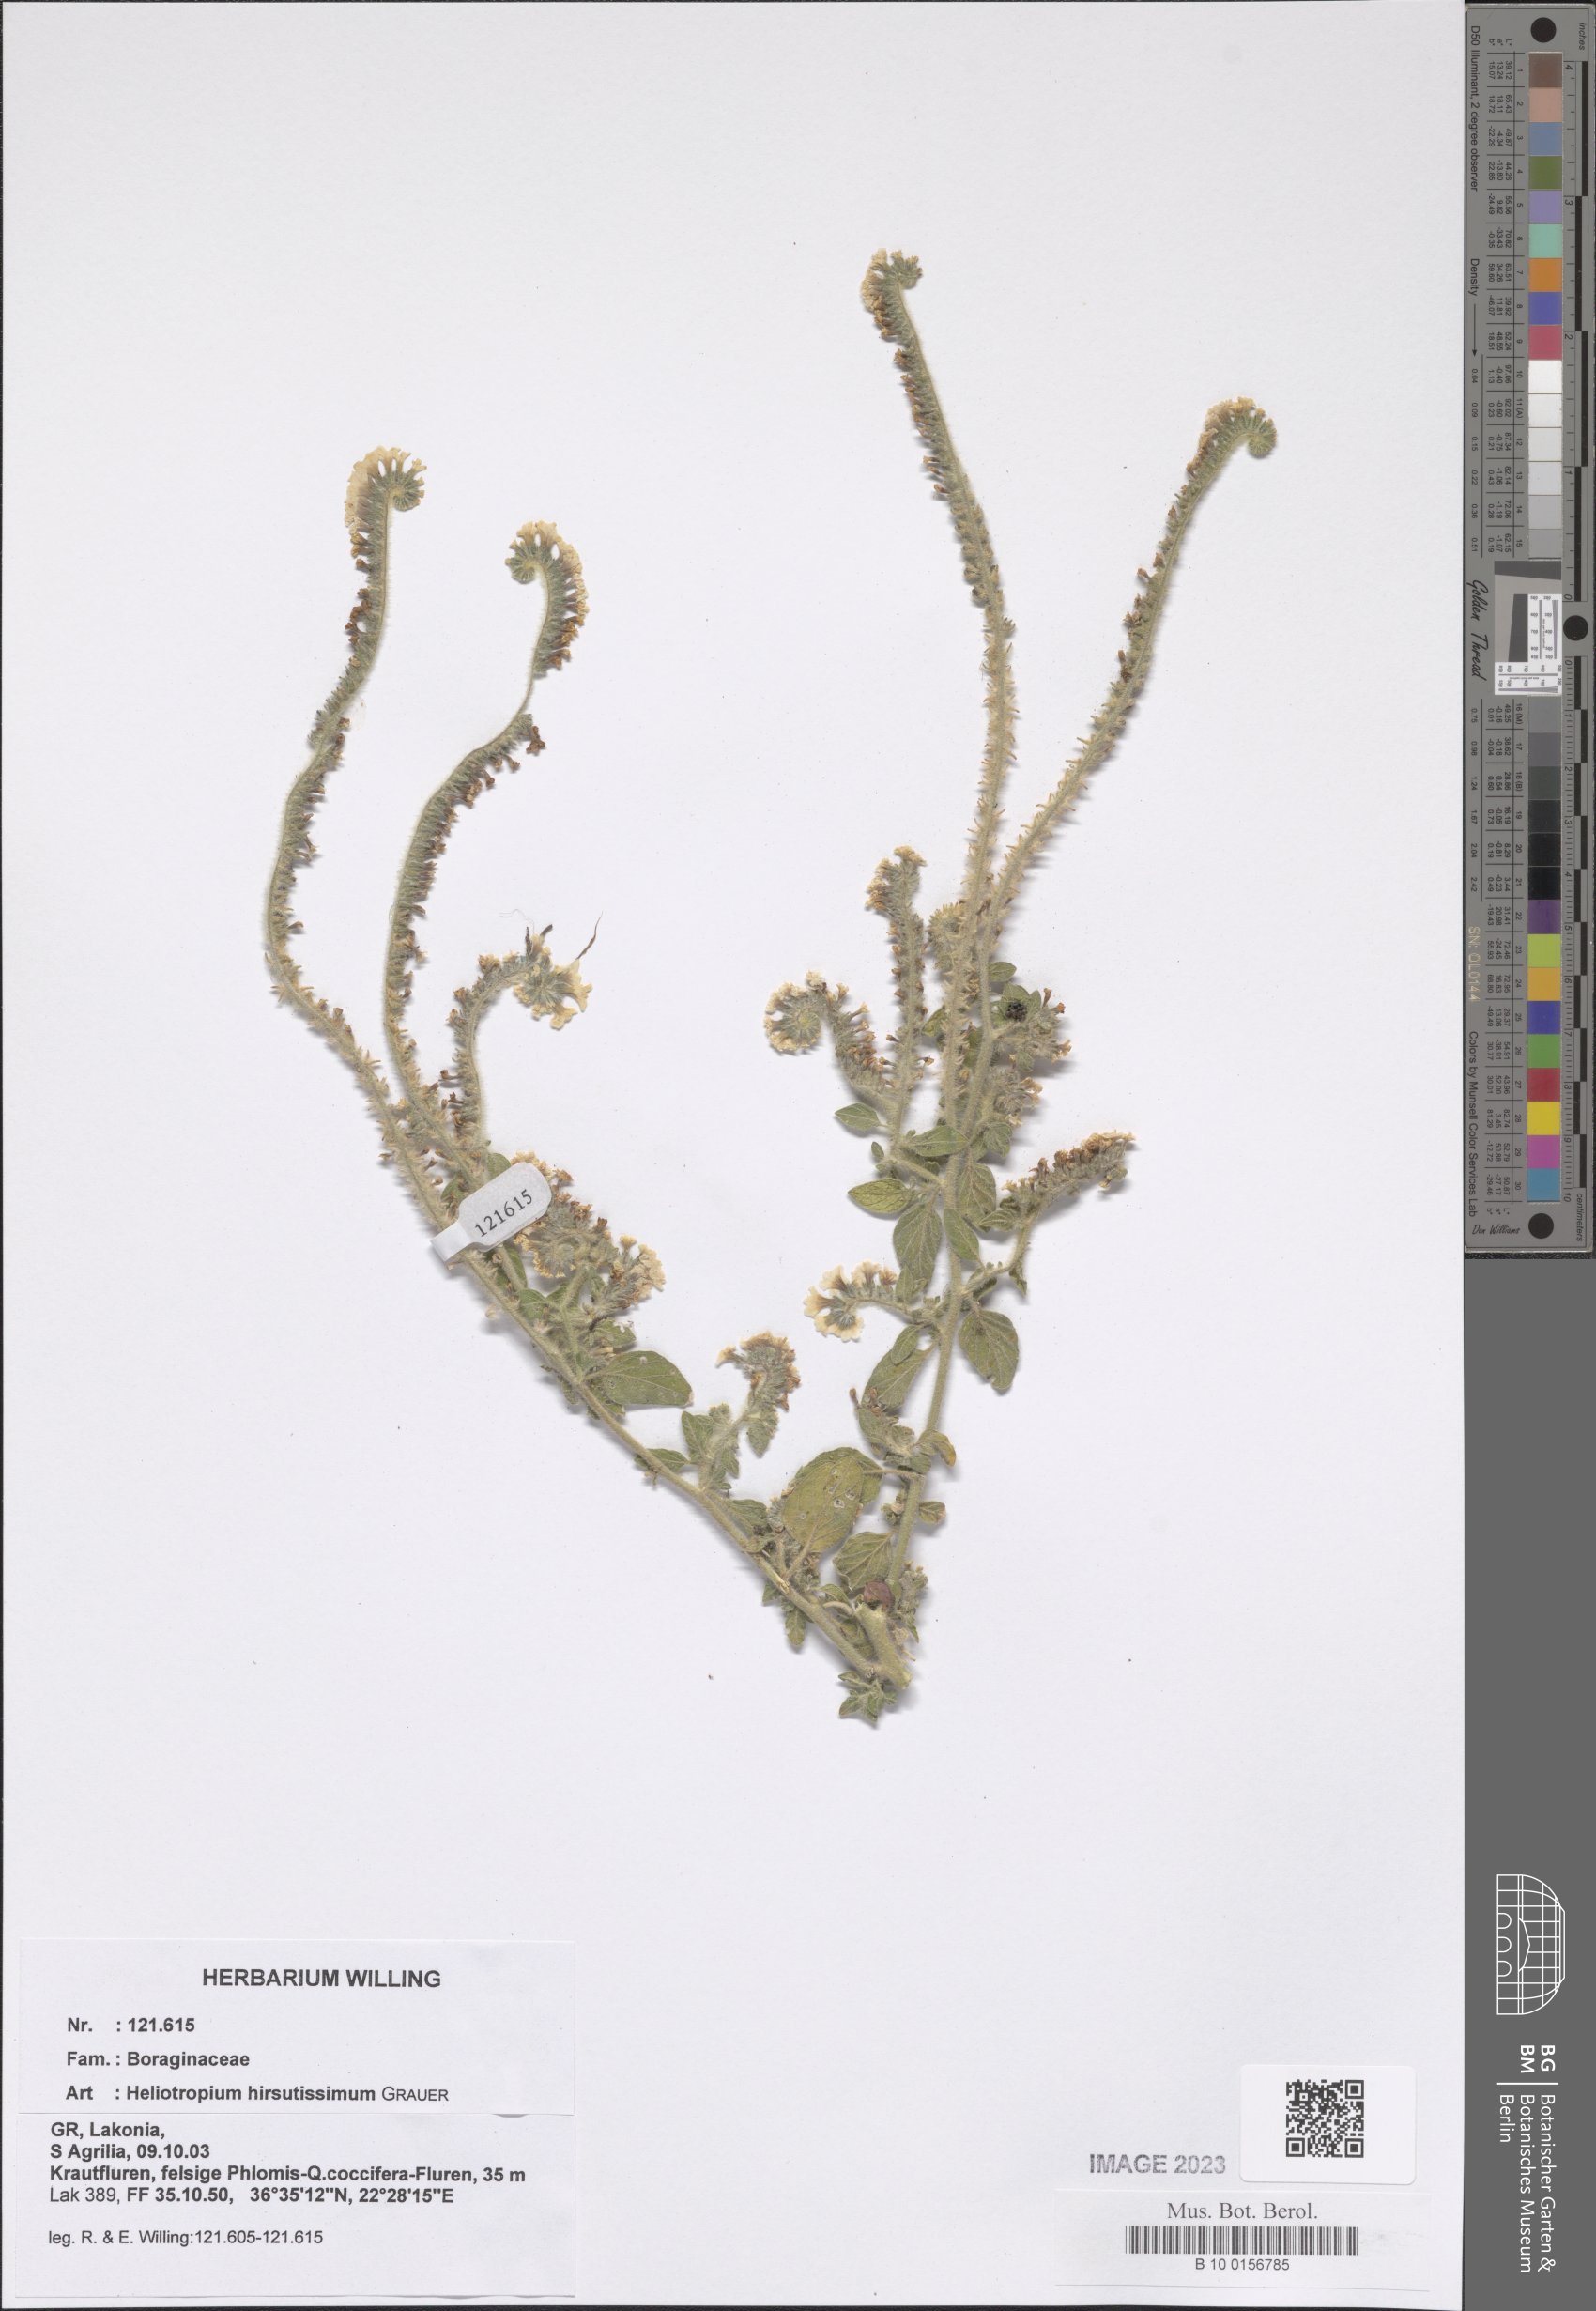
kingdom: Plantae
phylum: Tracheophyta
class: Magnoliopsida
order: Boraginales
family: Heliotropiaceae
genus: Heliotropium
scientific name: Heliotropium hirsutissimum
